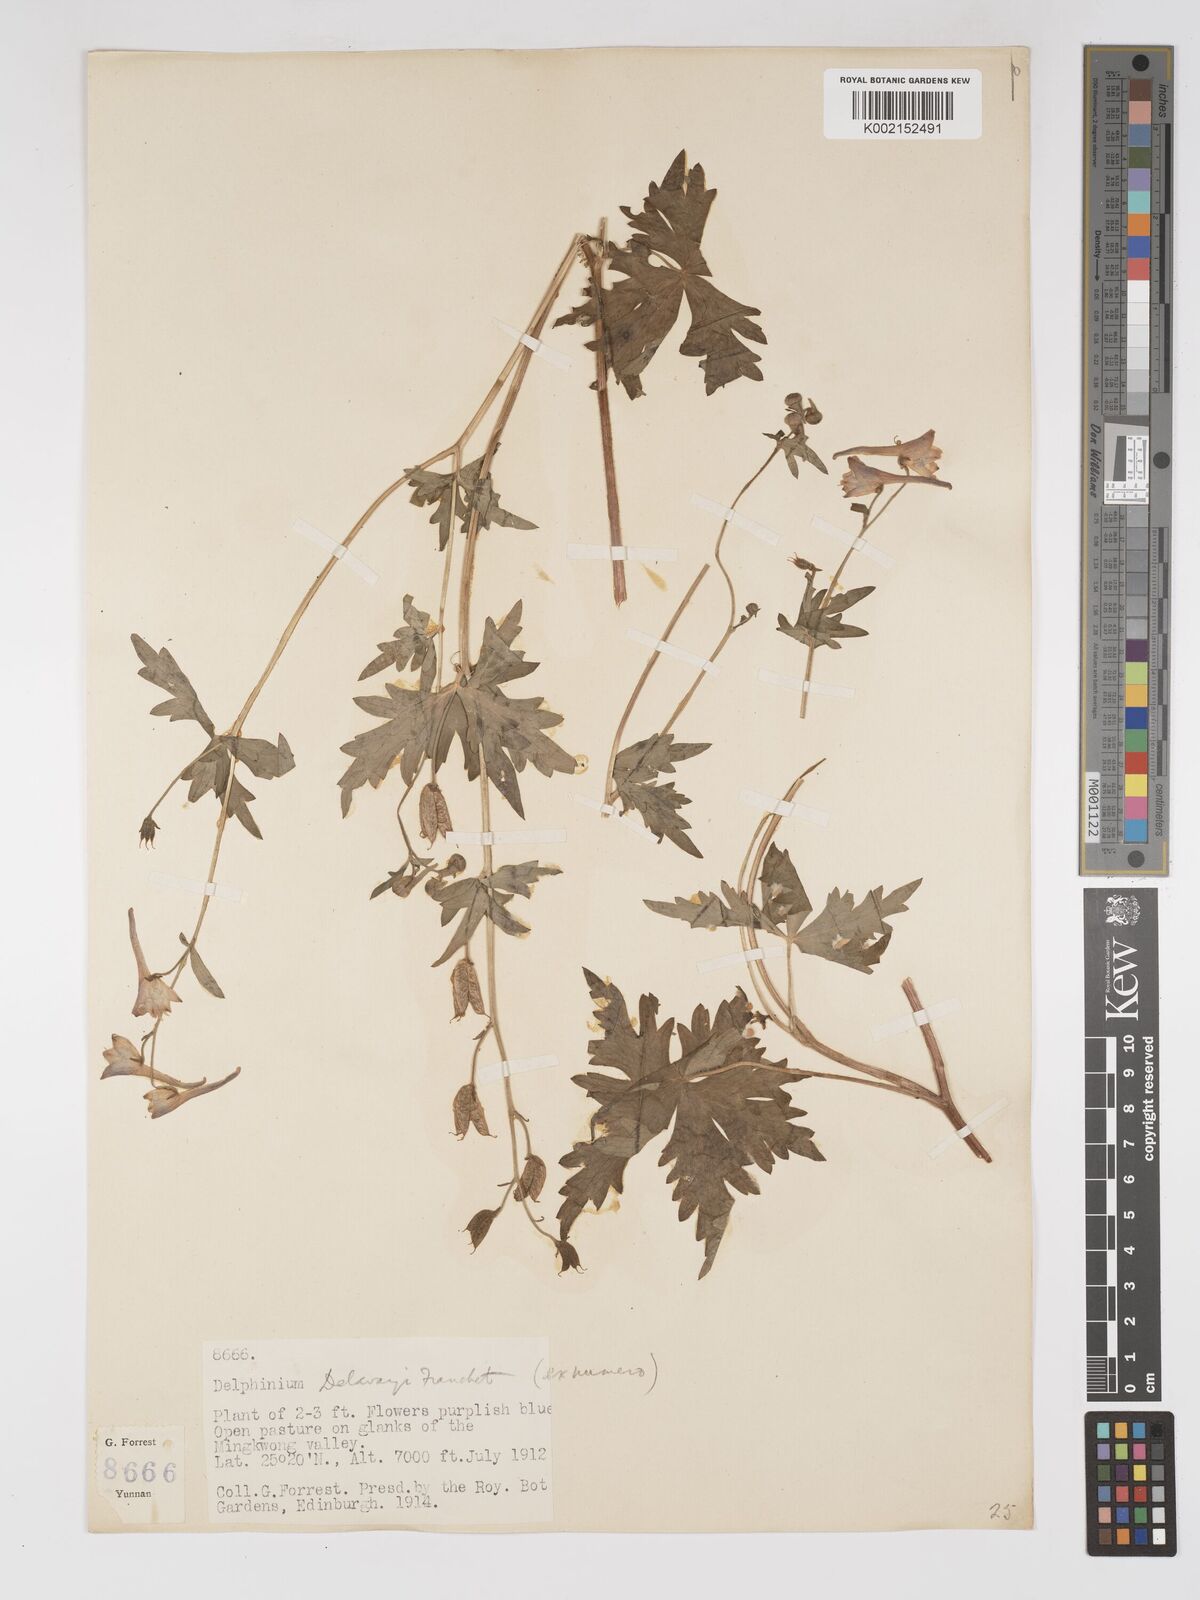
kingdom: Plantae
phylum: Tracheophyta
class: Magnoliopsida
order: Ranunculales
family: Ranunculaceae
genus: Delphinium
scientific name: Delphinium delavayi
